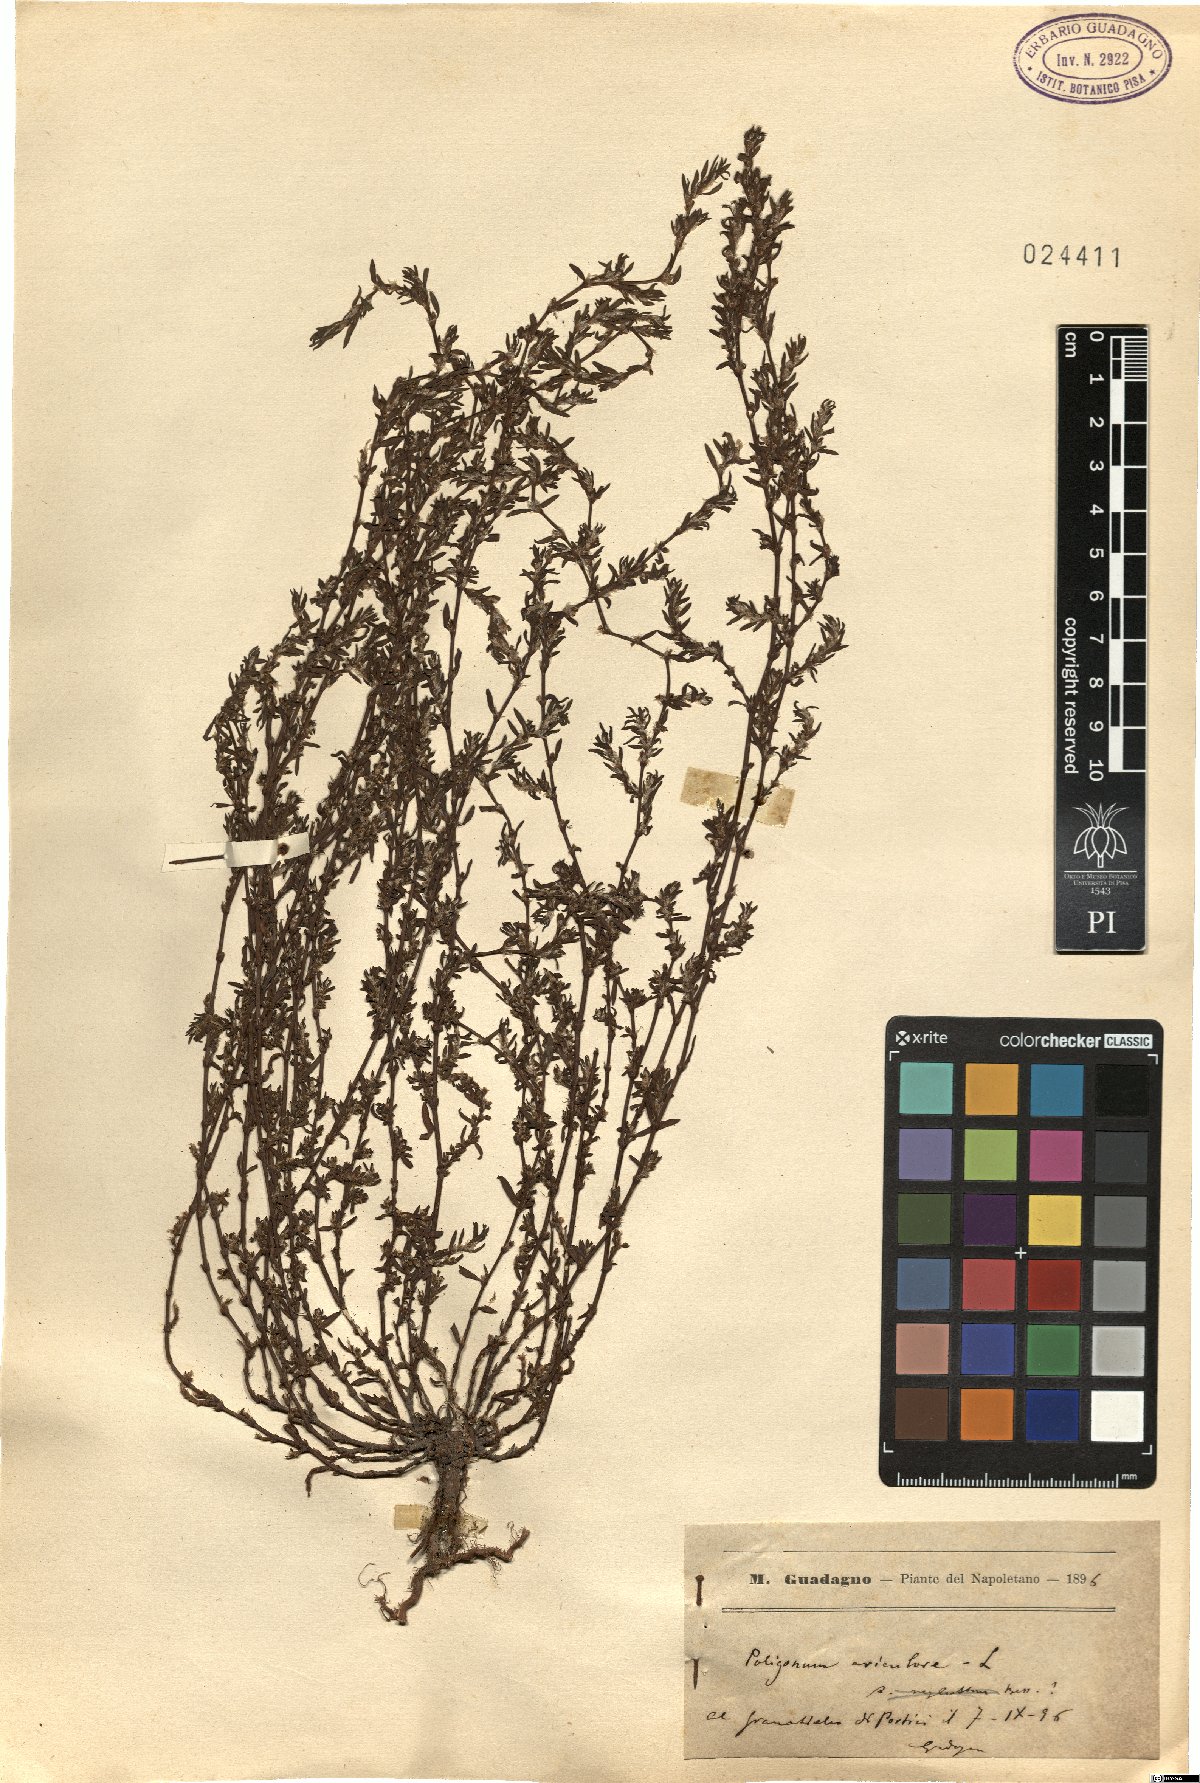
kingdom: Plantae
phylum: Tracheophyta
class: Magnoliopsida
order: Caryophyllales
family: Polygonaceae
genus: Polygonum
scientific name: Polygonum aviculare
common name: Prostrate knotweed
